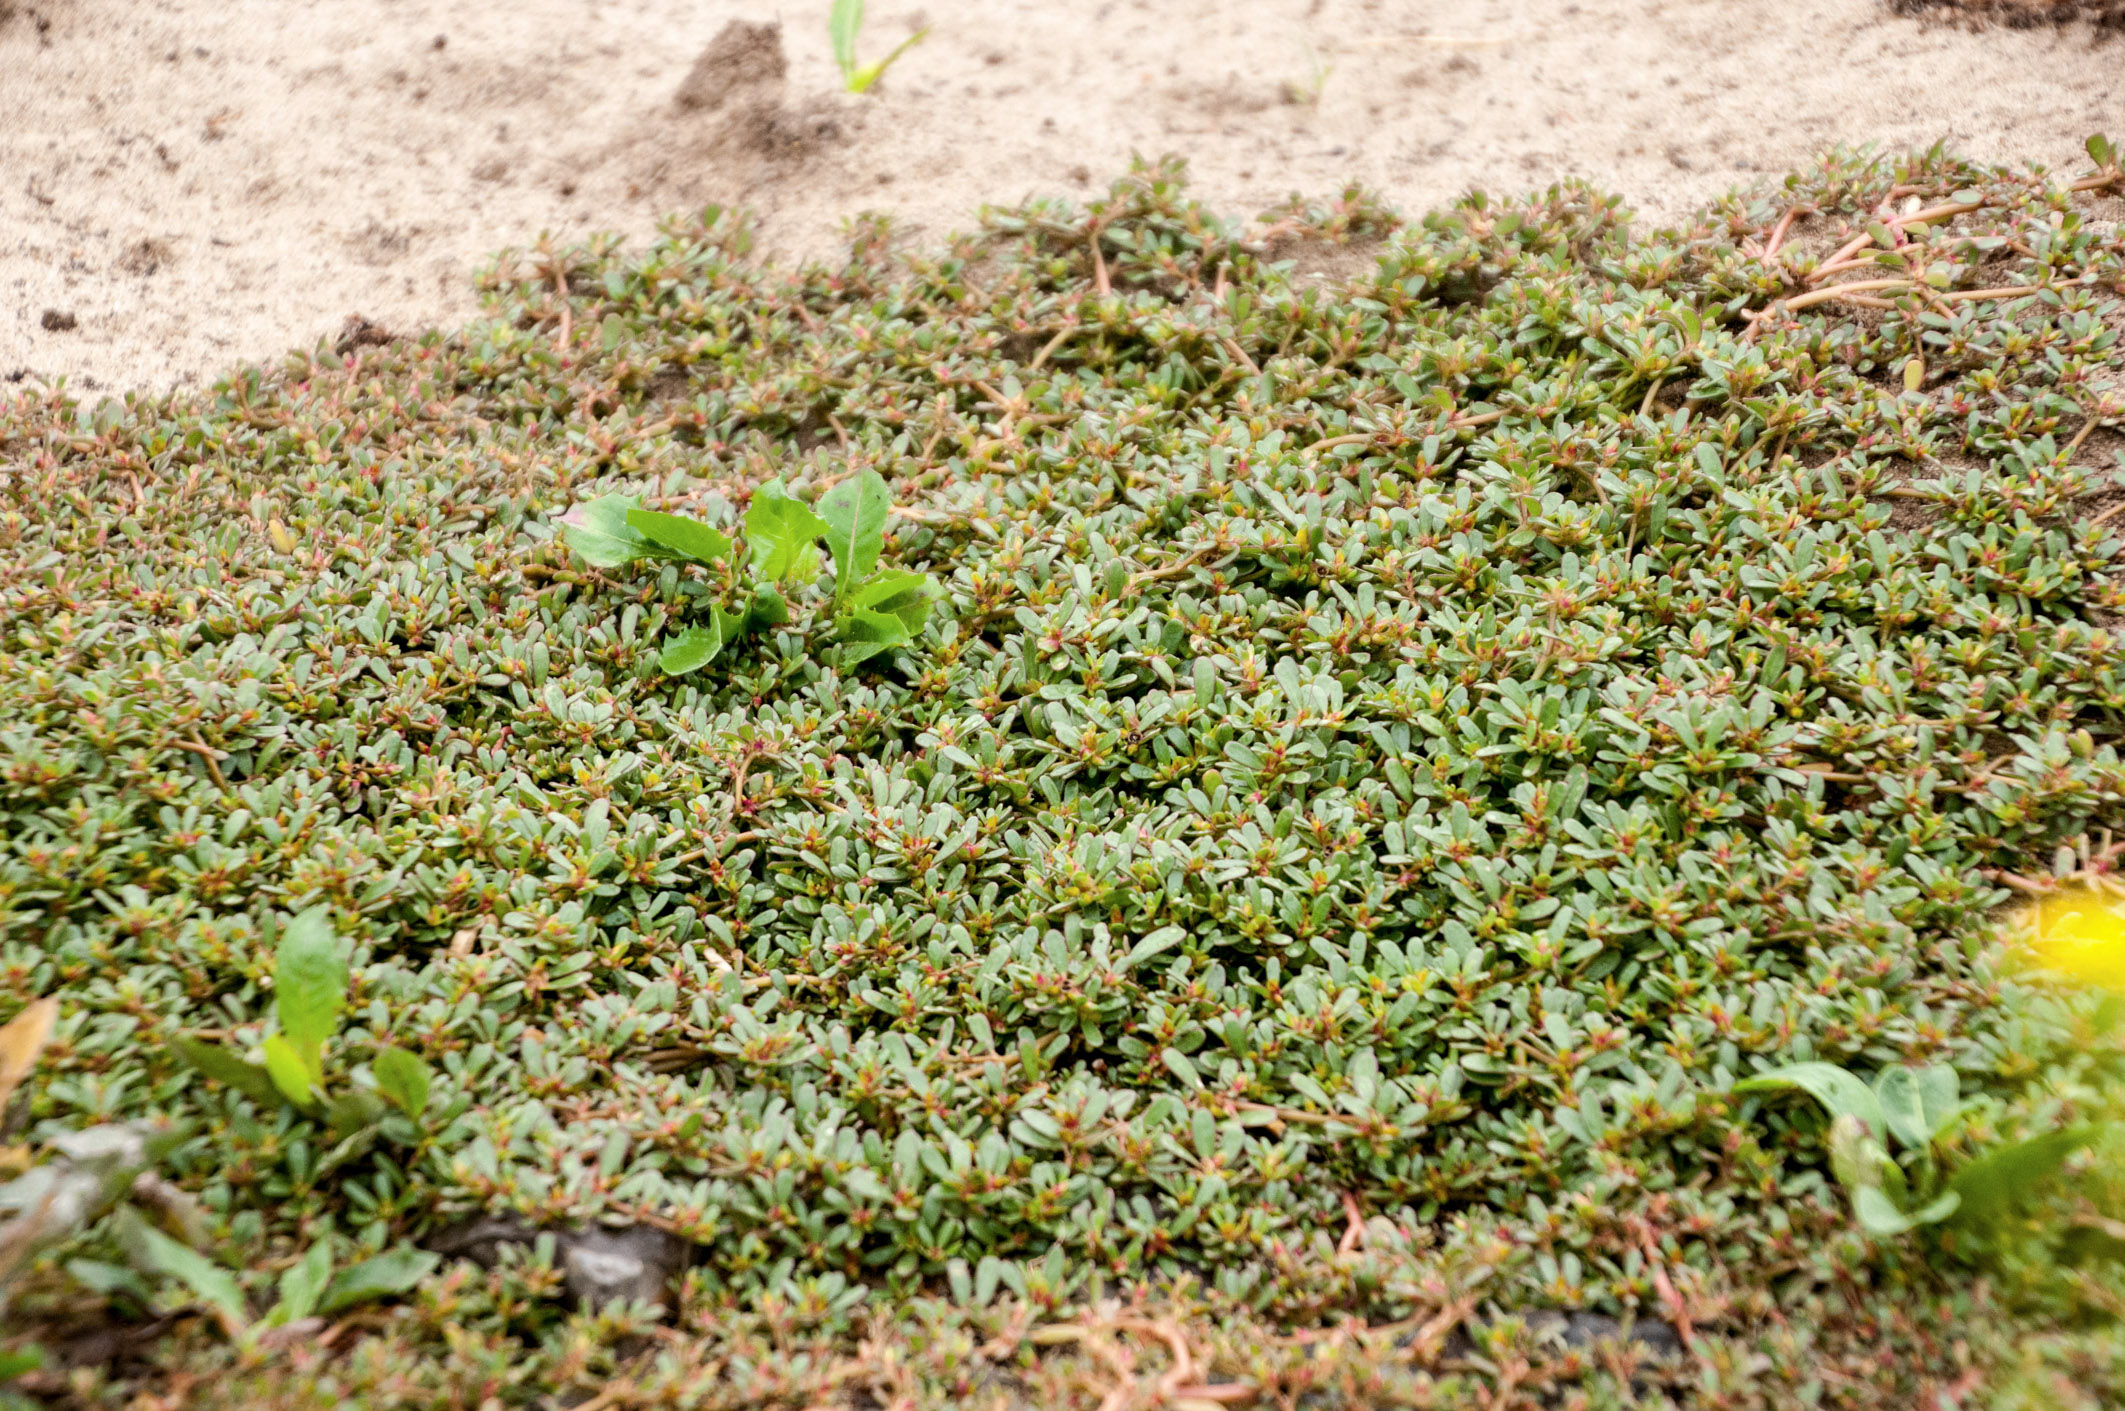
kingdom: Plantae
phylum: Tracheophyta
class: Magnoliopsida
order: Caryophyllales
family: Portulacaceae
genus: Portulaca
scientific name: Portulaca oleracea
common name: Common purslane
